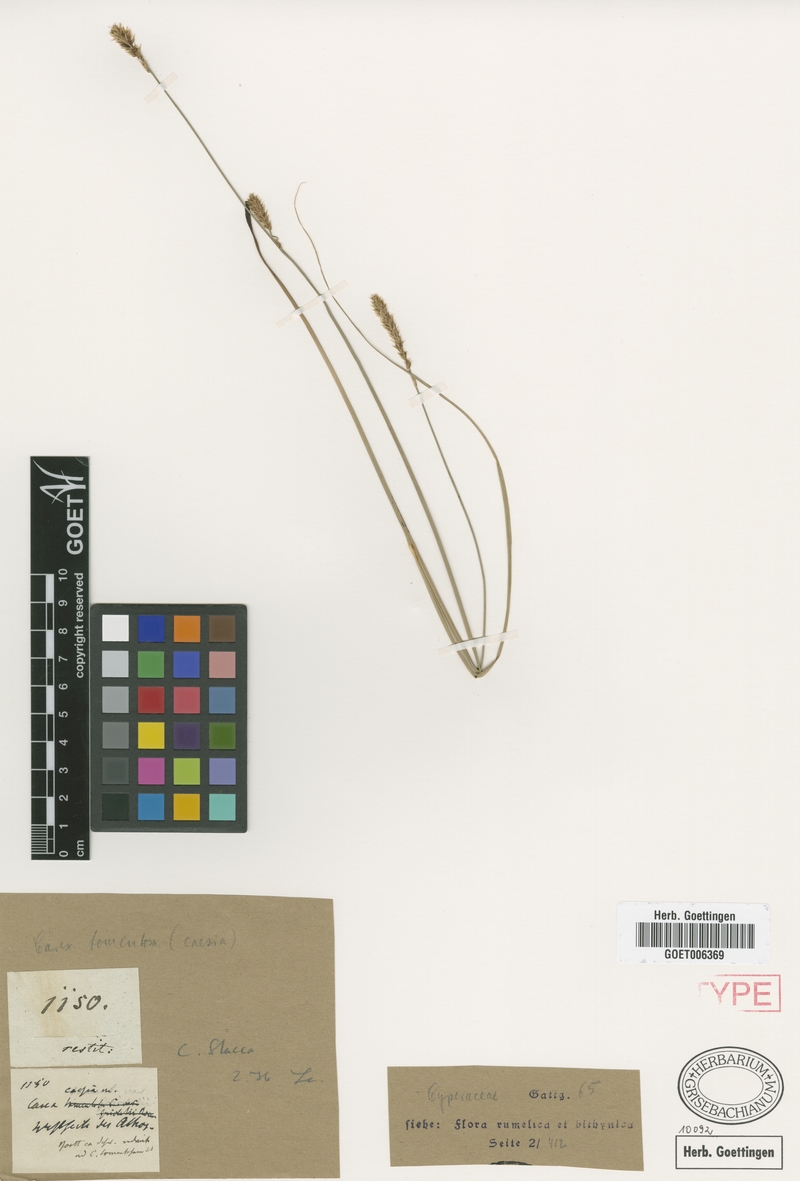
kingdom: Plantae
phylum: Tracheophyta
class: Liliopsida
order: Poales
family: Cyperaceae
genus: Carex
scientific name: Carex flacca
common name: Glaucous sedge
